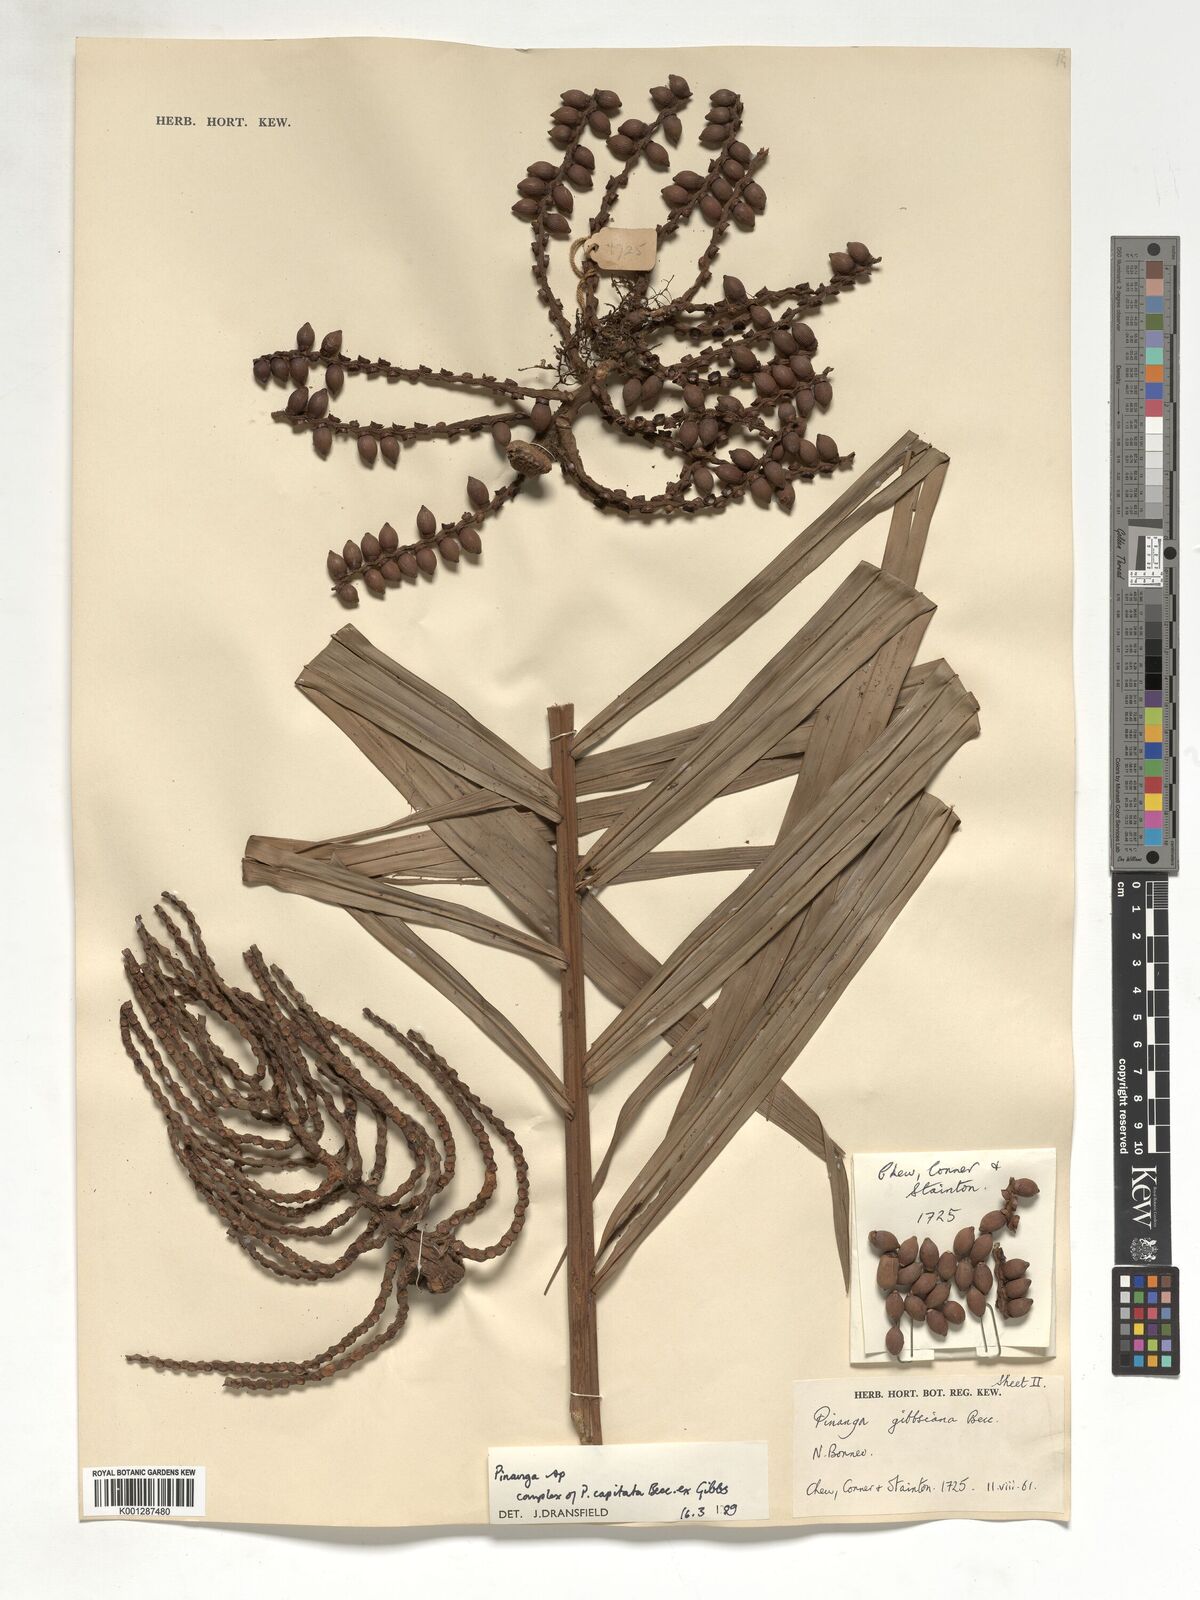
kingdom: Plantae
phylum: Tracheophyta
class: Liliopsida
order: Arecales
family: Arecaceae
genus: Pinanga
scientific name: Pinanga
